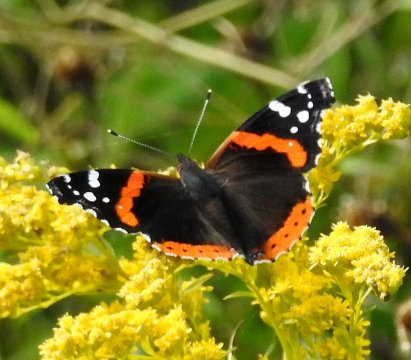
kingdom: Animalia
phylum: Arthropoda
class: Insecta
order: Lepidoptera
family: Nymphalidae
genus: Vanessa
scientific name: Vanessa atalanta
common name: Red Admiral
